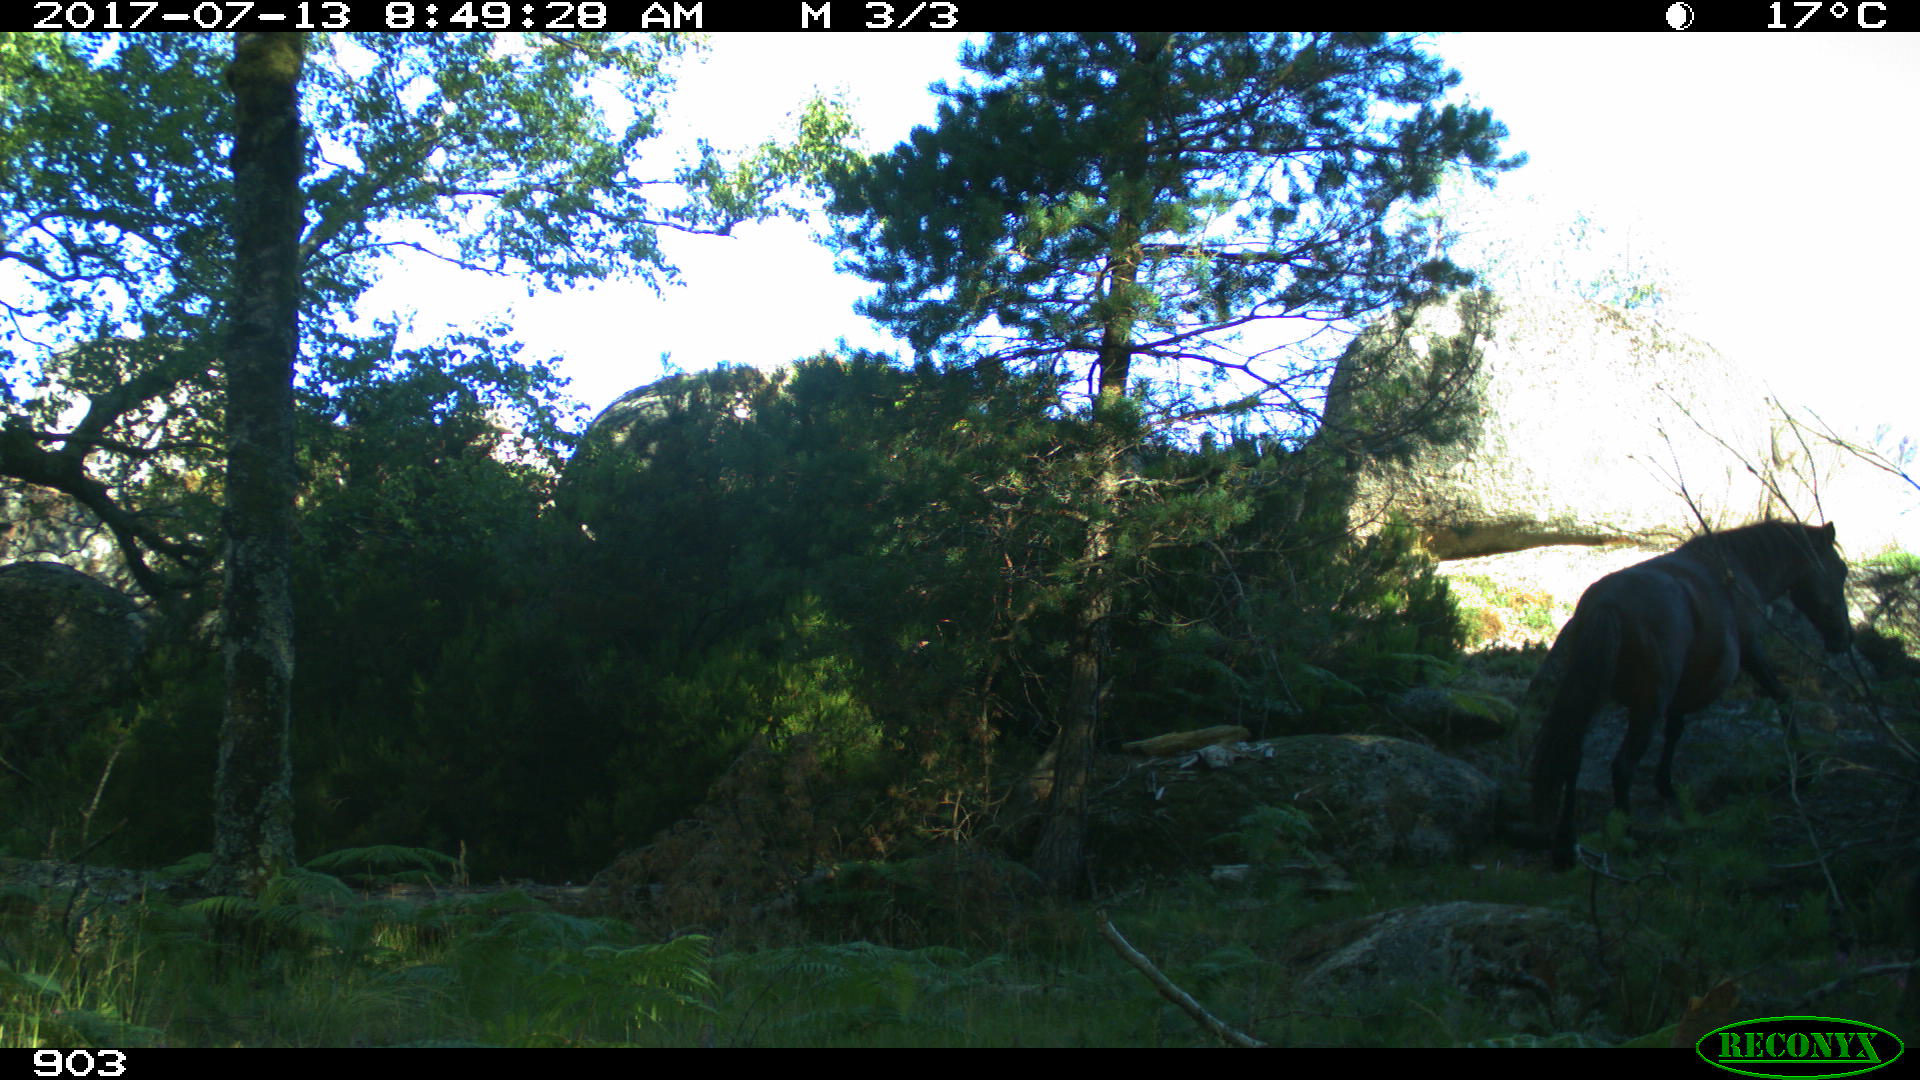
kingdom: Animalia
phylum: Chordata
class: Mammalia
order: Perissodactyla
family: Equidae
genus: Equus
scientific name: Equus caballus
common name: Horse
